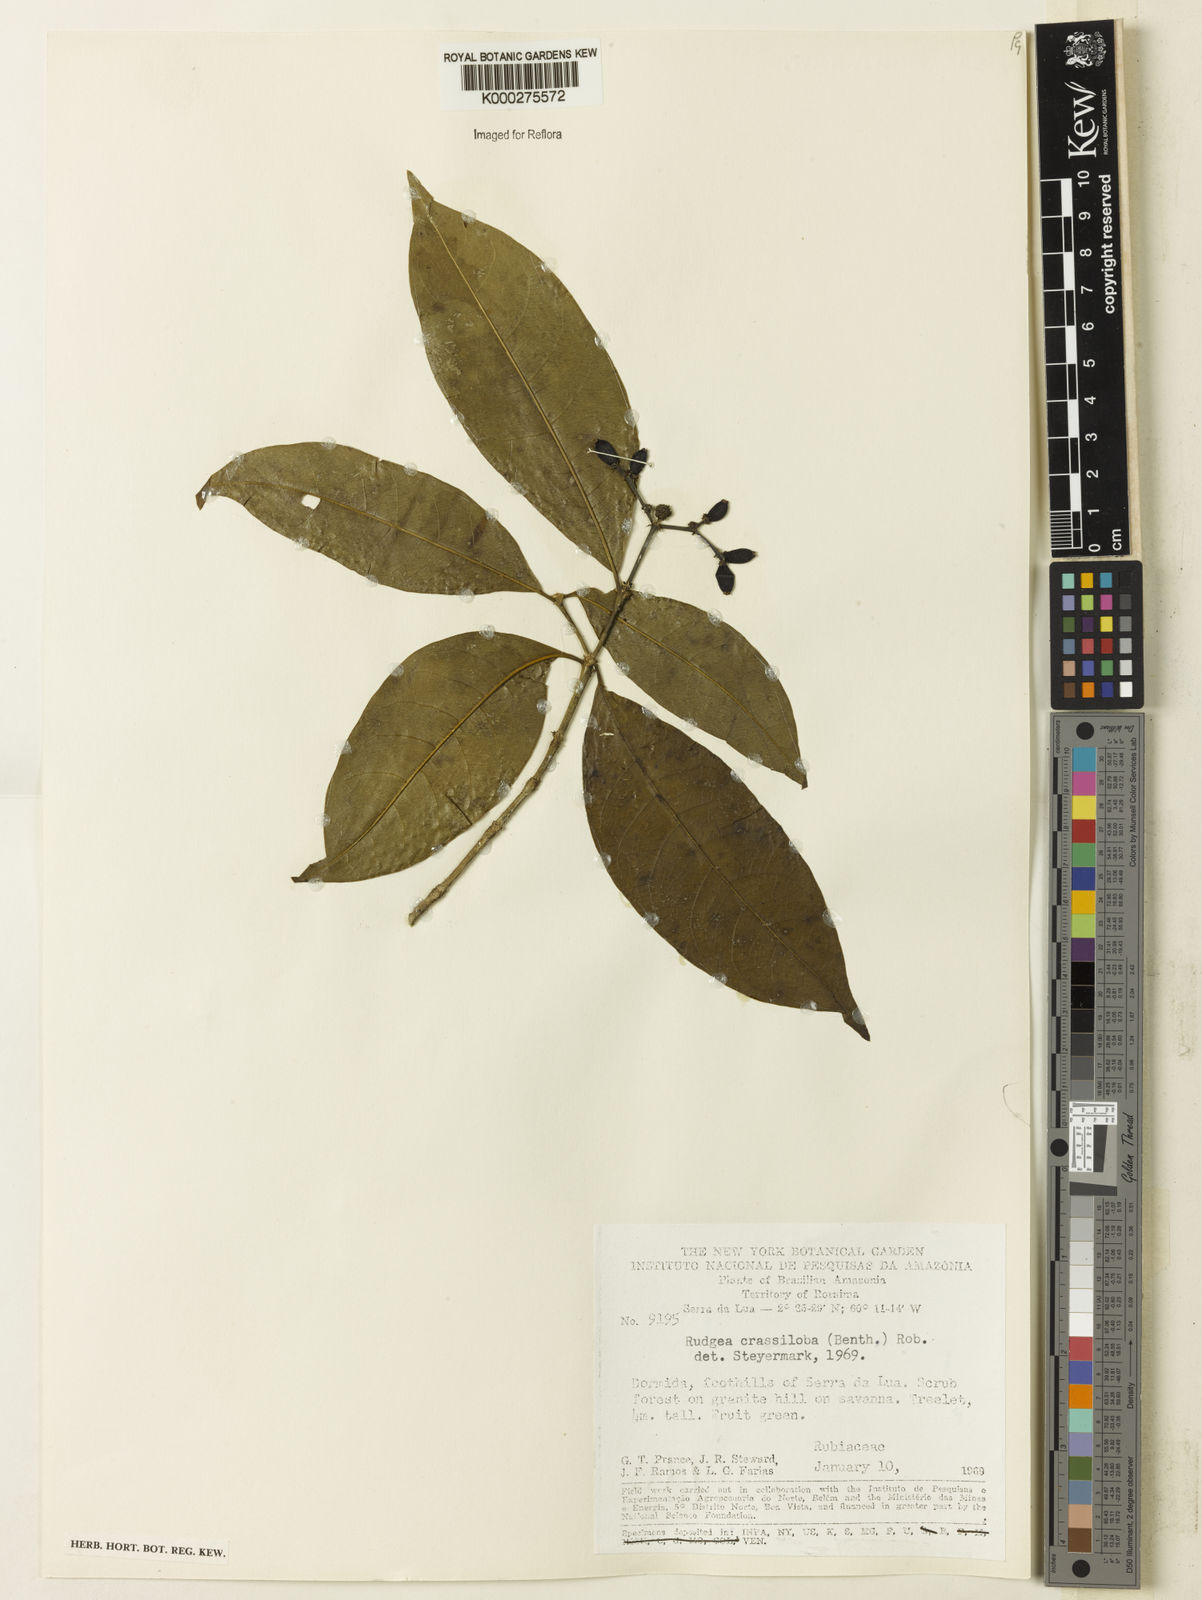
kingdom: Plantae
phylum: Tracheophyta
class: Magnoliopsida
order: Gentianales
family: Rubiaceae
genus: Rudgea
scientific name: Rudgea crassiloba
